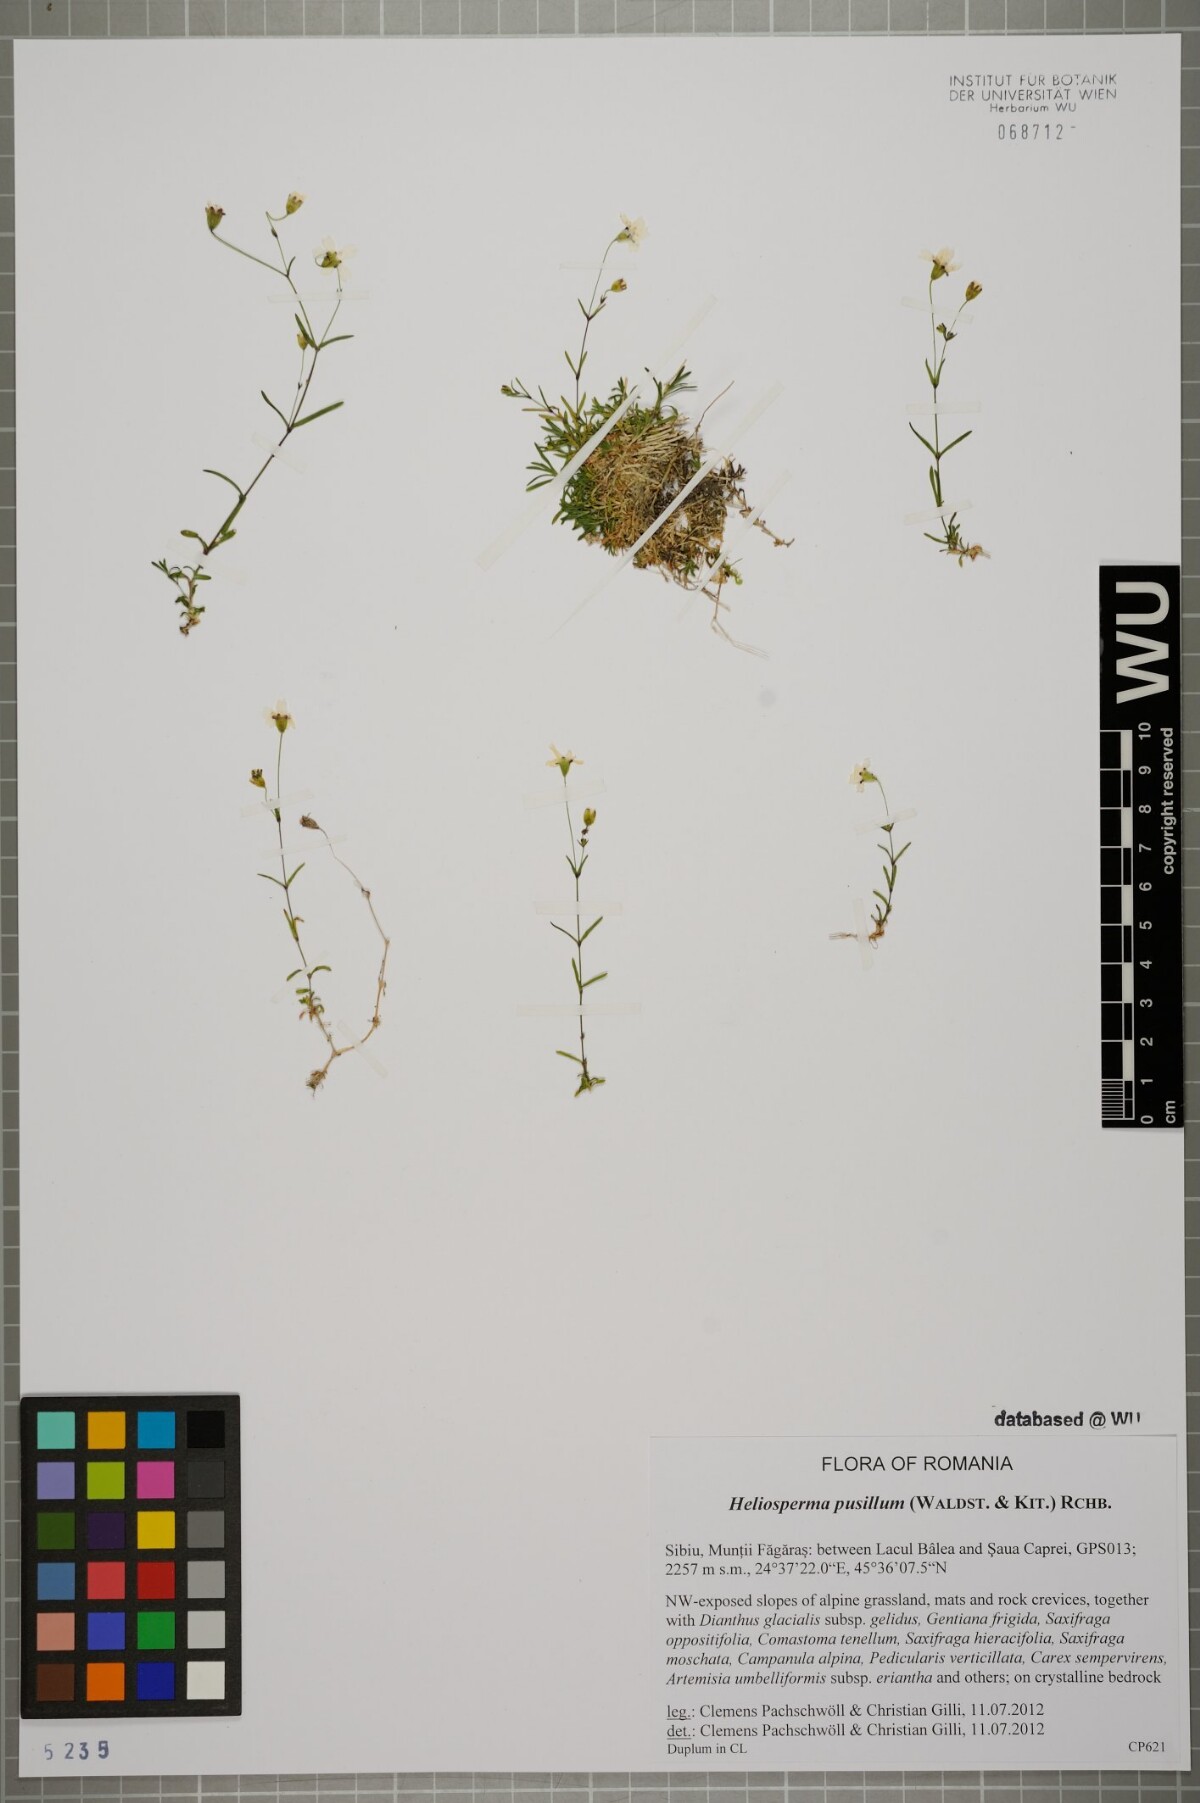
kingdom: Plantae
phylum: Tracheophyta
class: Magnoliopsida
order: Caryophyllales
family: Caryophyllaceae
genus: Heliosperma
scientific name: Heliosperma pusillum
